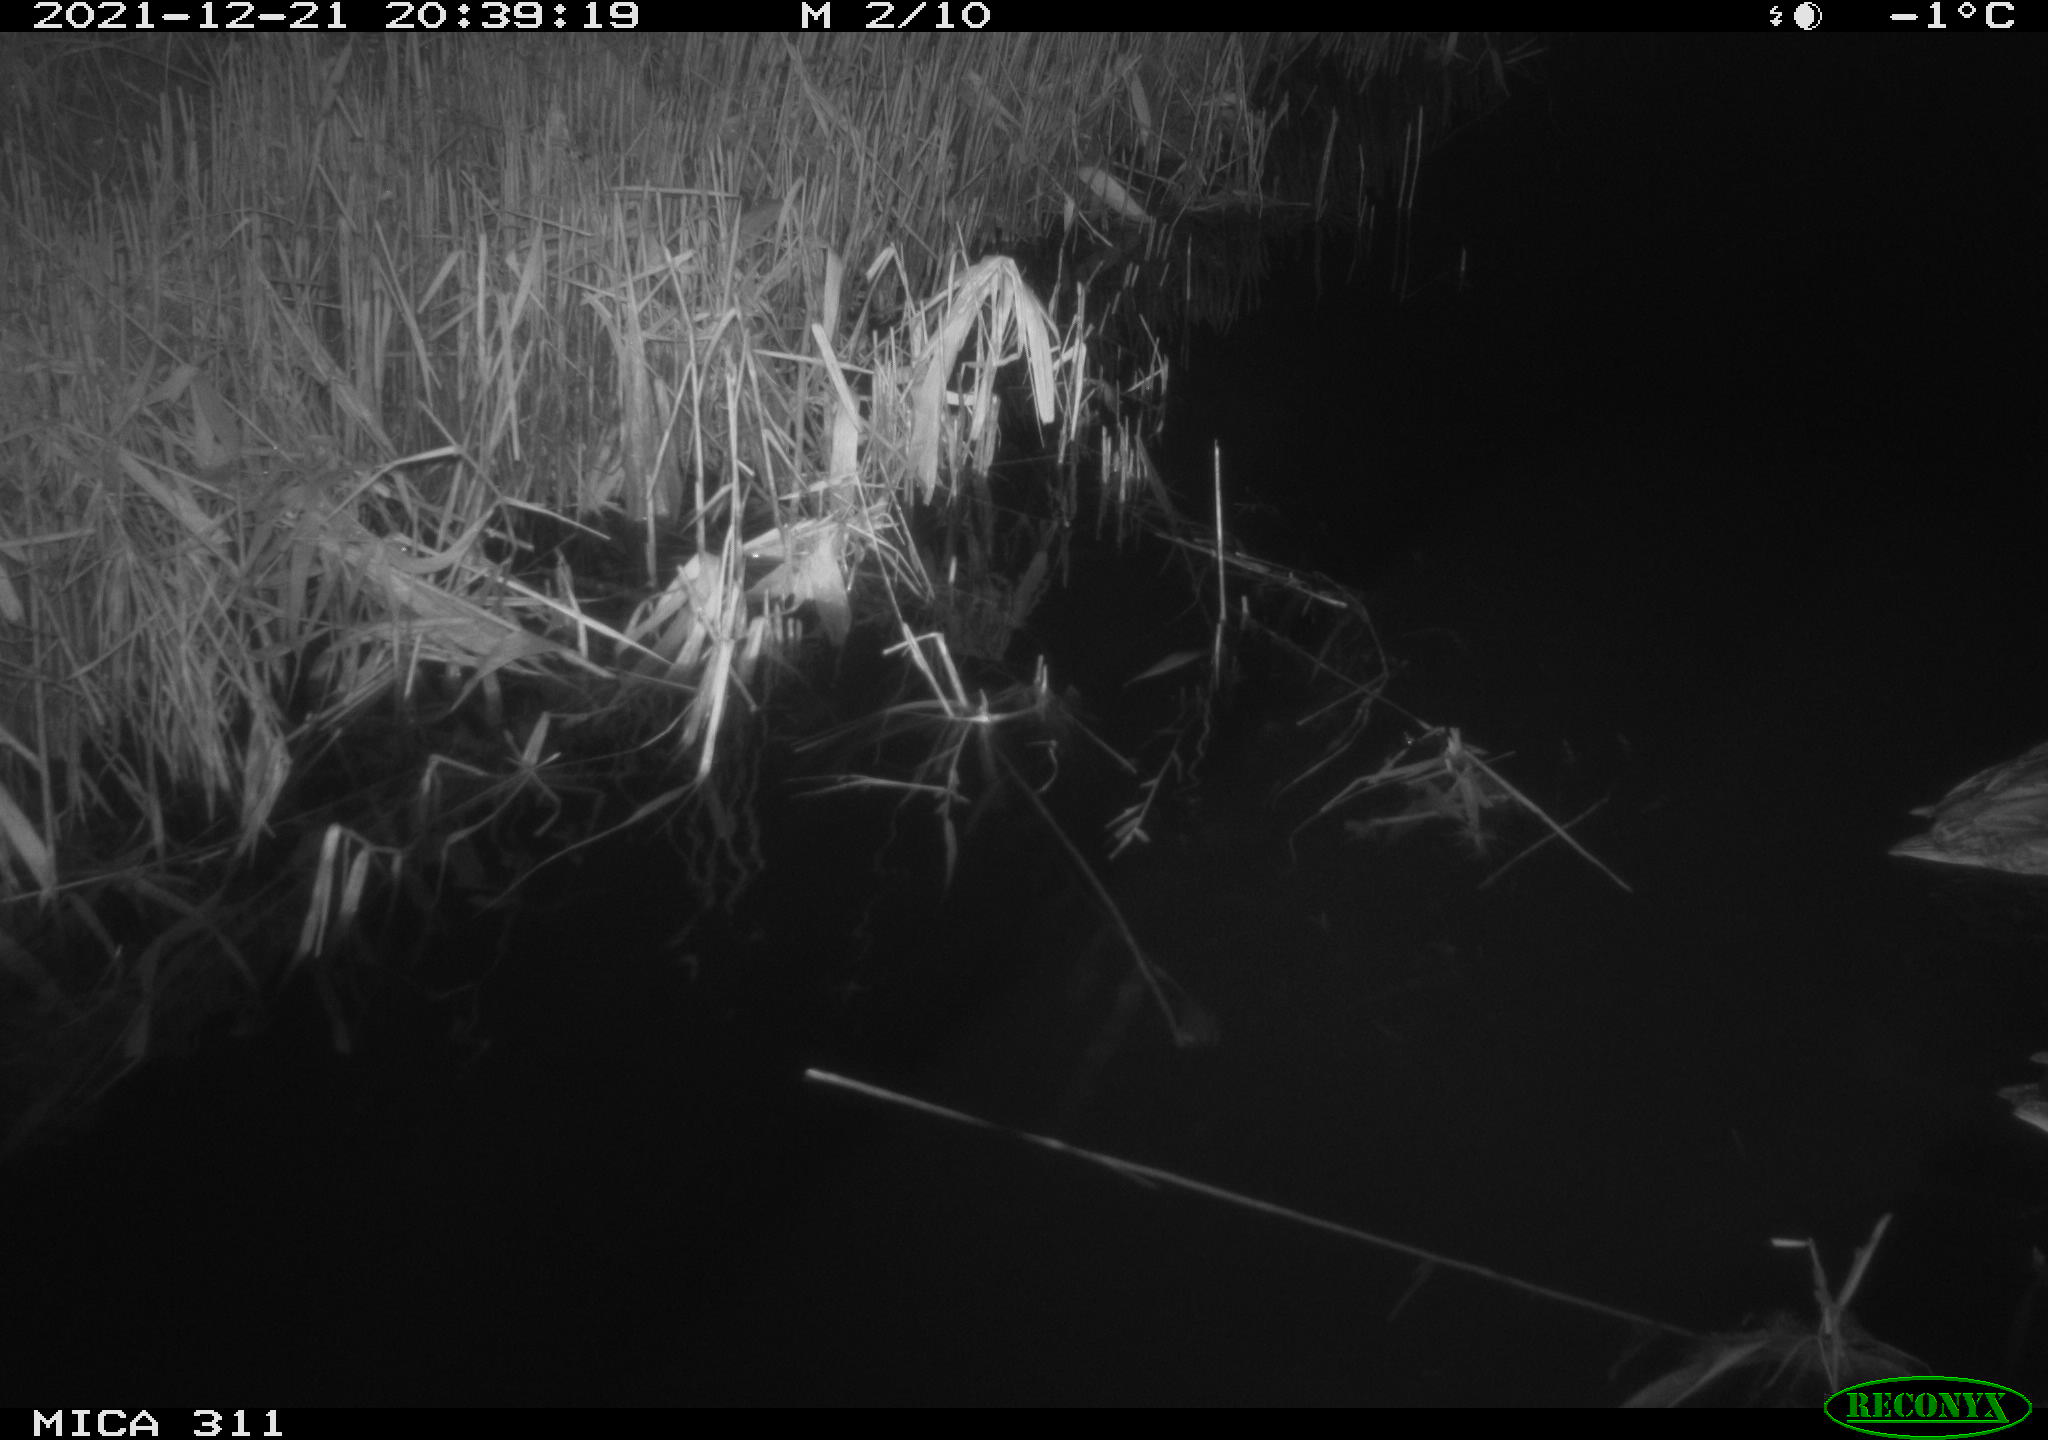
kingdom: Animalia
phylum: Chordata
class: Aves
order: Anseriformes
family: Anatidae
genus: Anas
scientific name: Anas platyrhynchos
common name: Mallard
